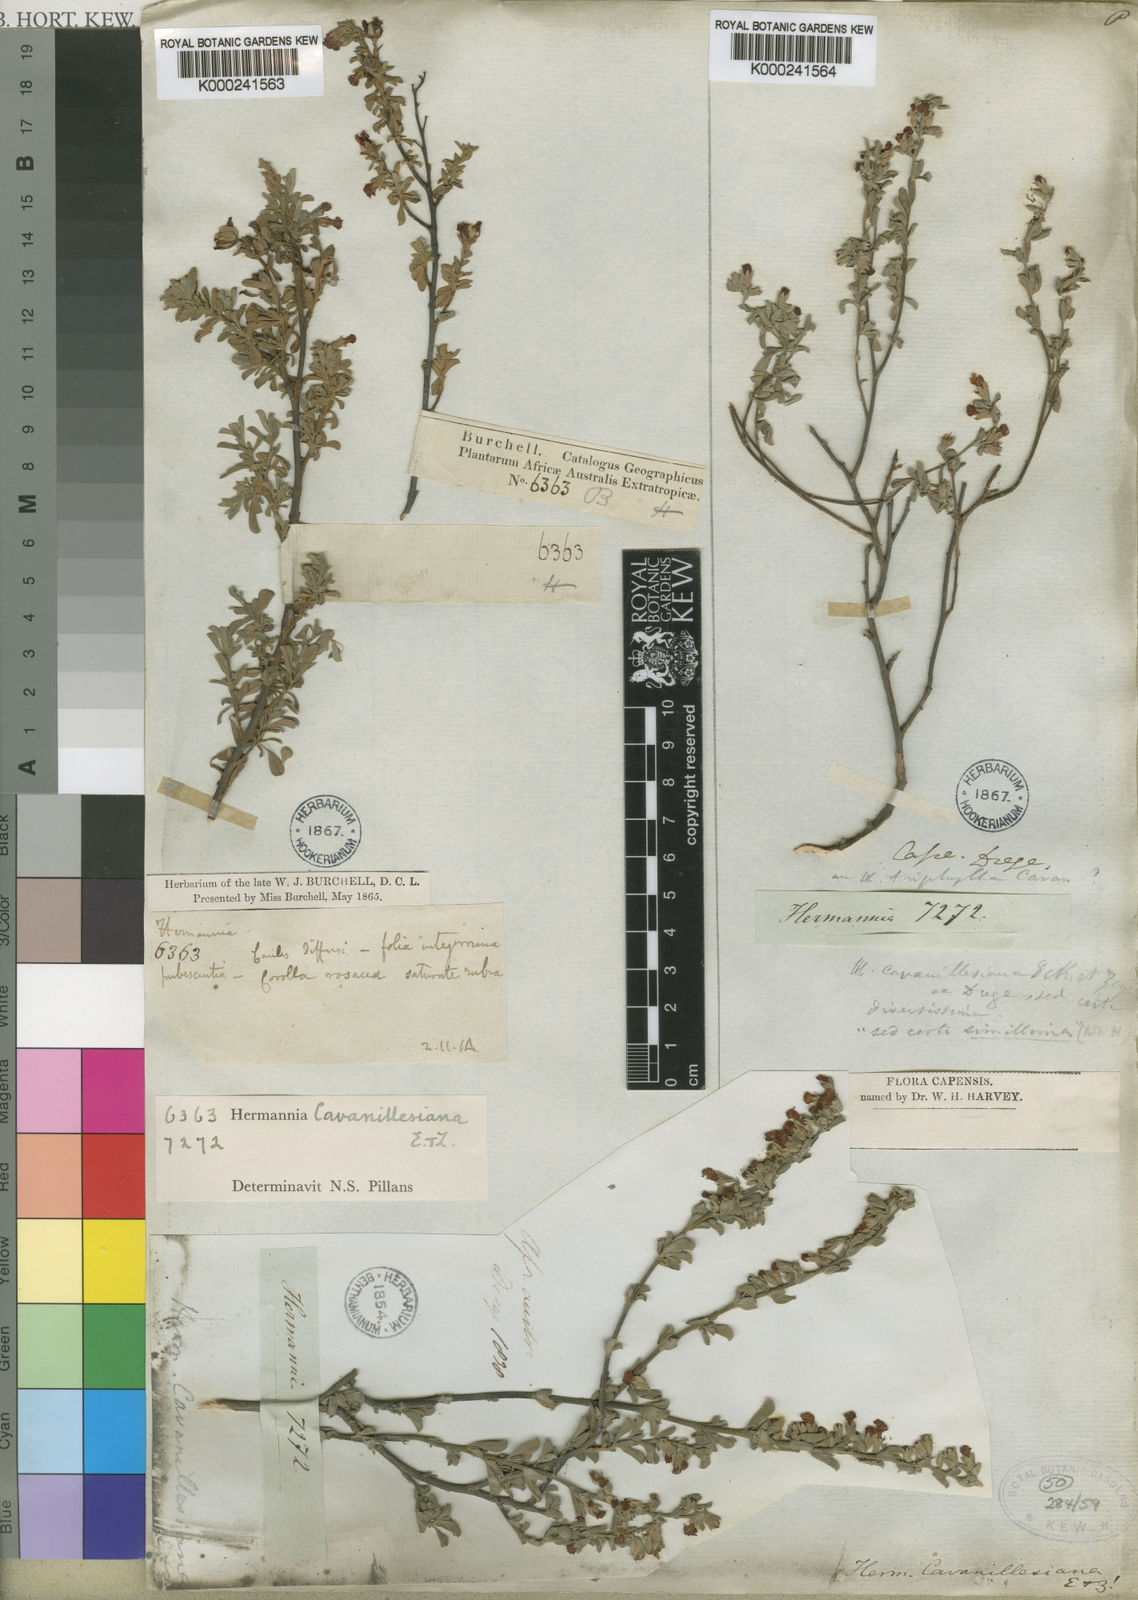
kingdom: Plantae
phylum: Tracheophyta
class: Magnoliopsida
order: Malvales
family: Malvaceae
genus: Hermannia
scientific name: Hermannia lavandulifolia
